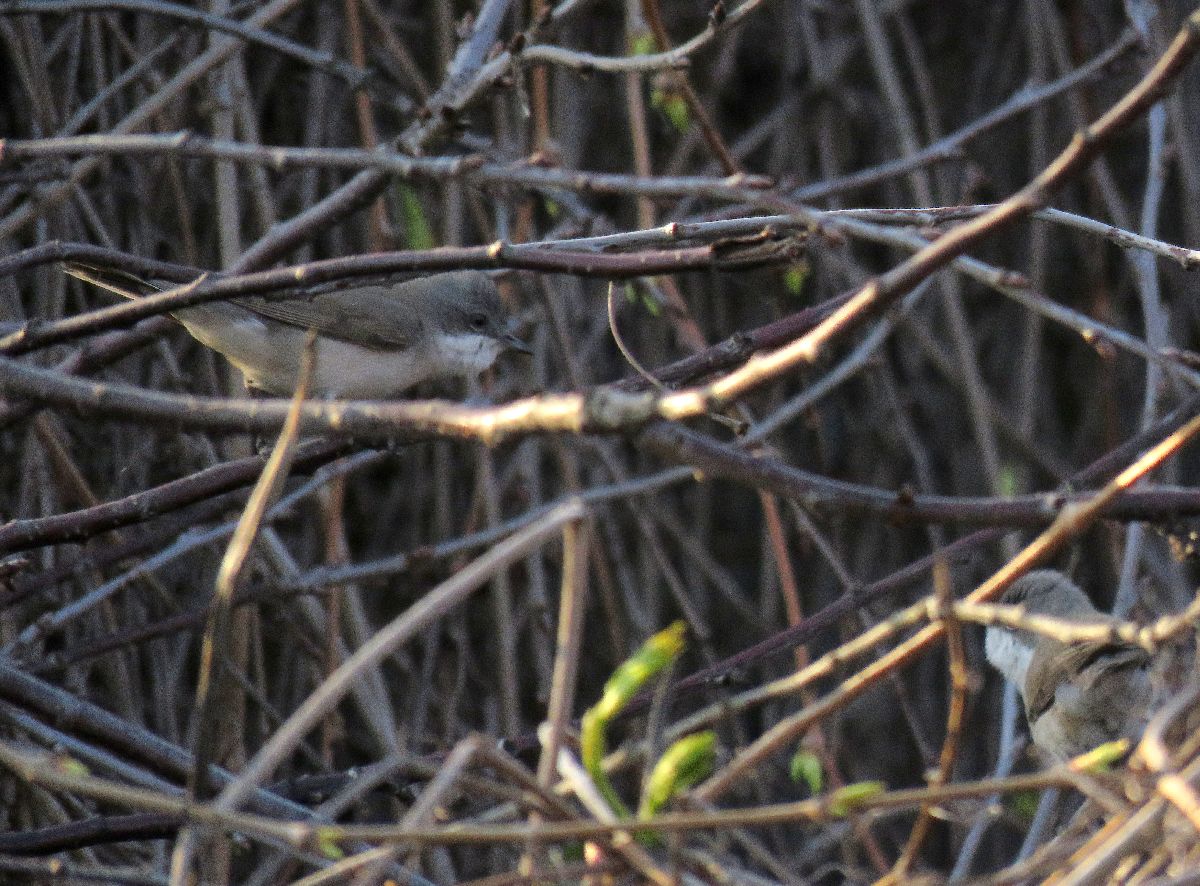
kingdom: Animalia
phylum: Chordata
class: Aves
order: Passeriformes
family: Sylviidae
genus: Sylvia
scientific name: Sylvia curruca
